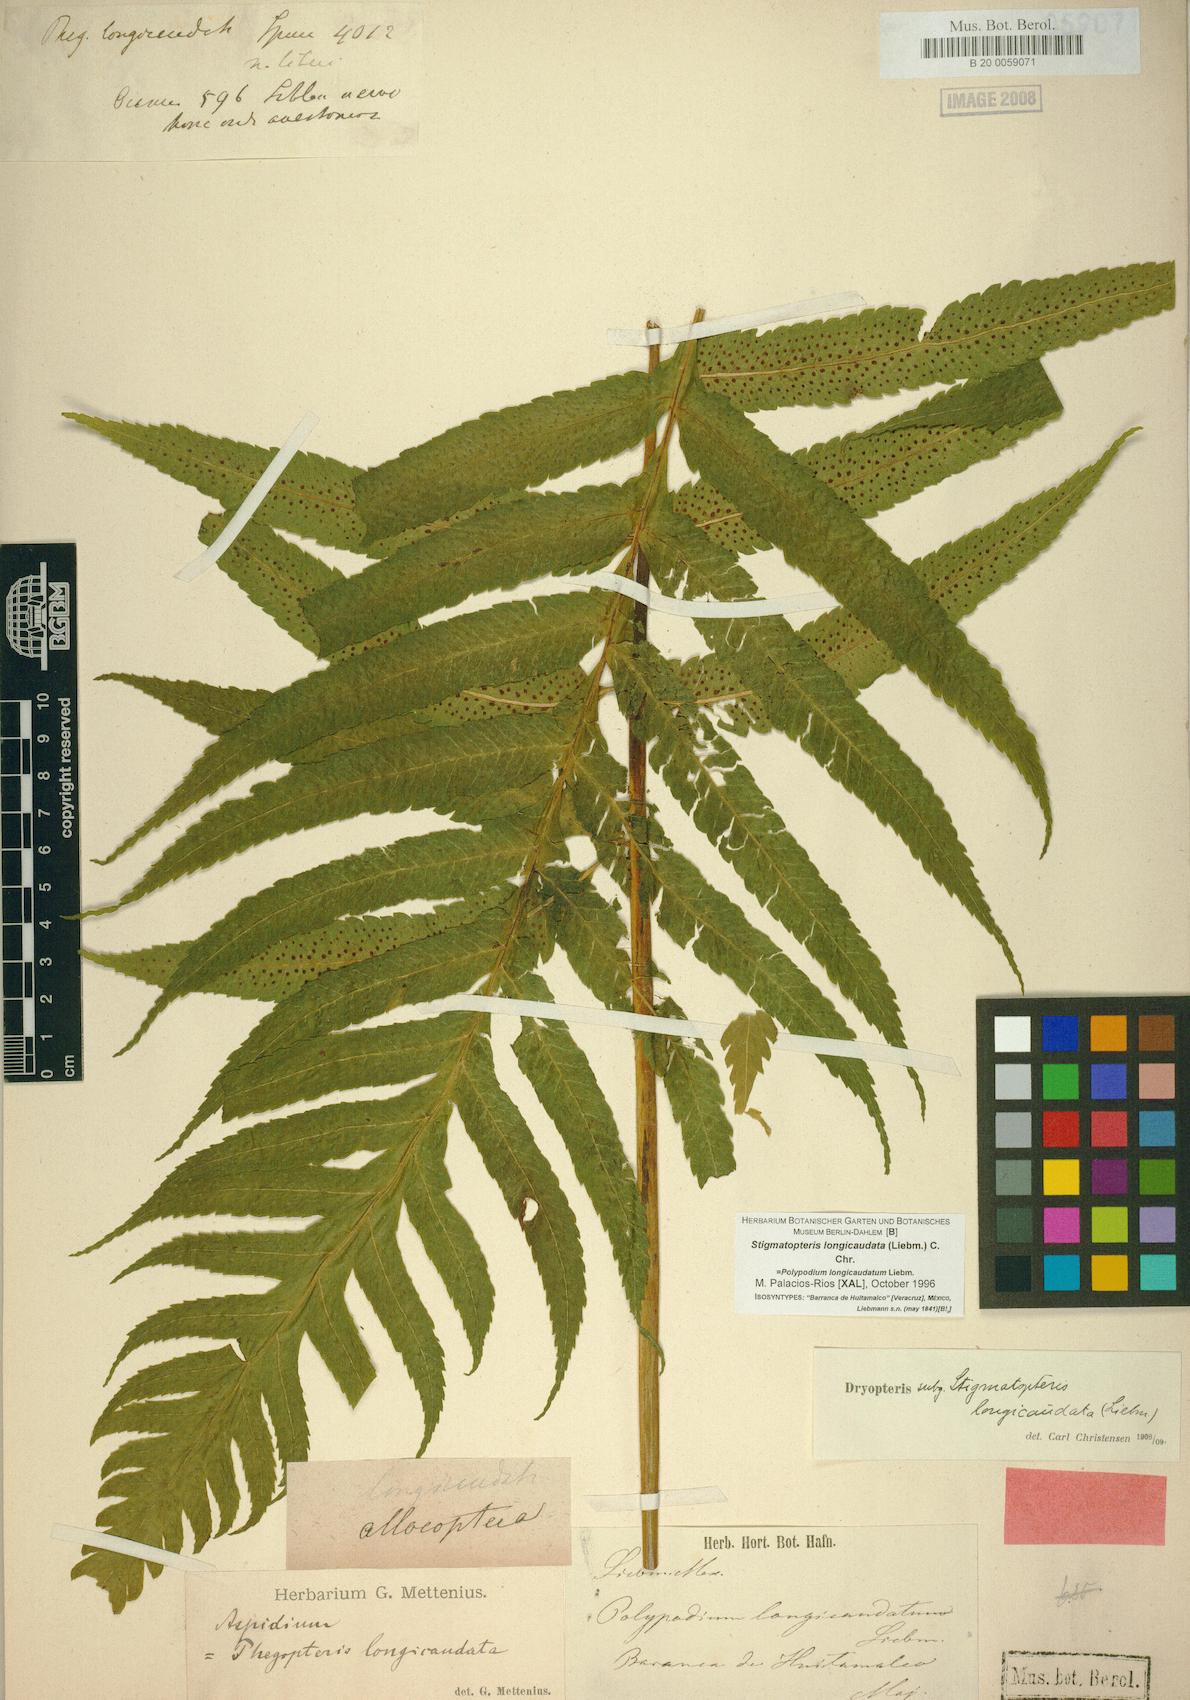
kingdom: Plantae
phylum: Tracheophyta
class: Polypodiopsida
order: Polypodiales
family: Dryopteridaceae
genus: Stigmatopteris
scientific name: Stigmatopteris longicaudata
